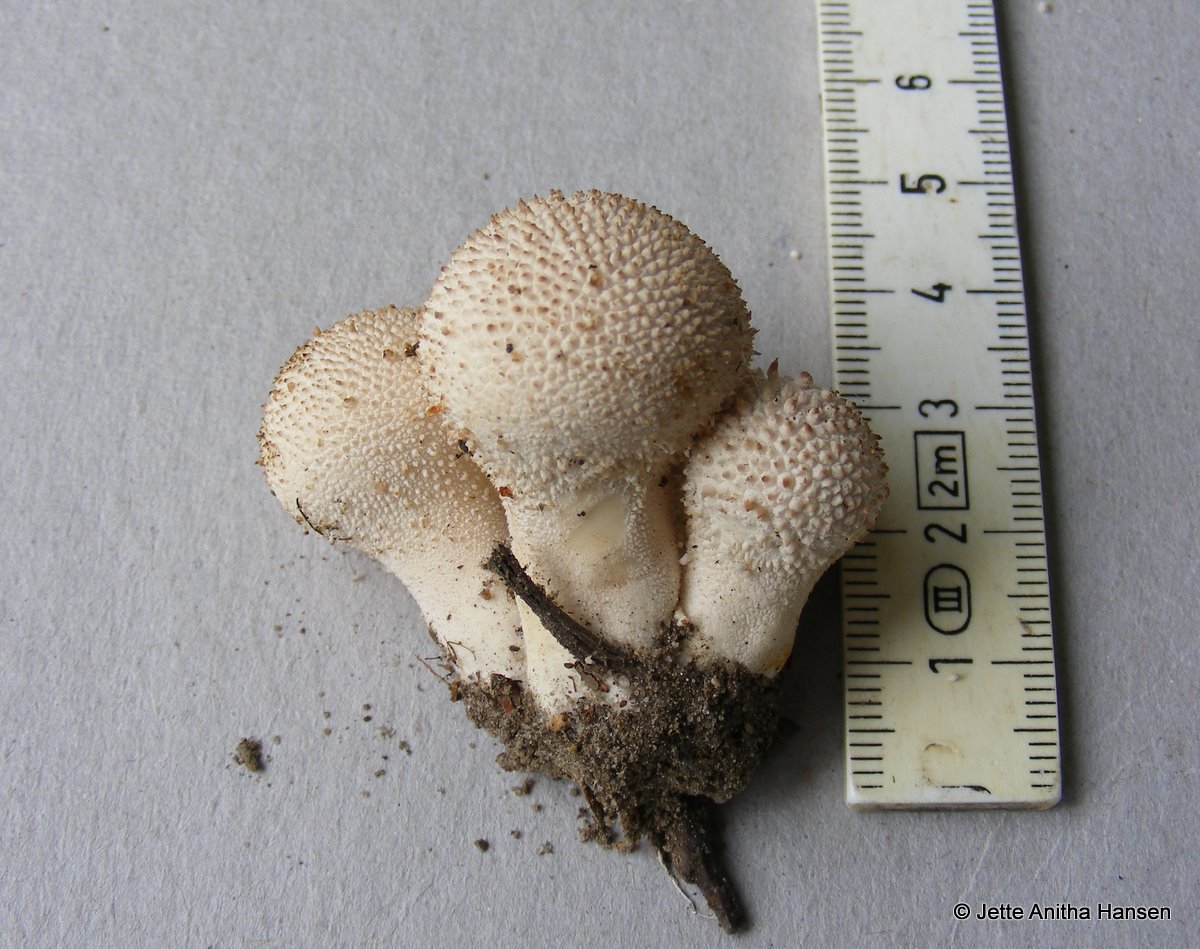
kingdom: Fungi
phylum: Basidiomycota
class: Agaricomycetes
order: Agaricales
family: Lycoperdaceae
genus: Lycoperdon
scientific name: Lycoperdon perlatum
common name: krystal-støvbold
